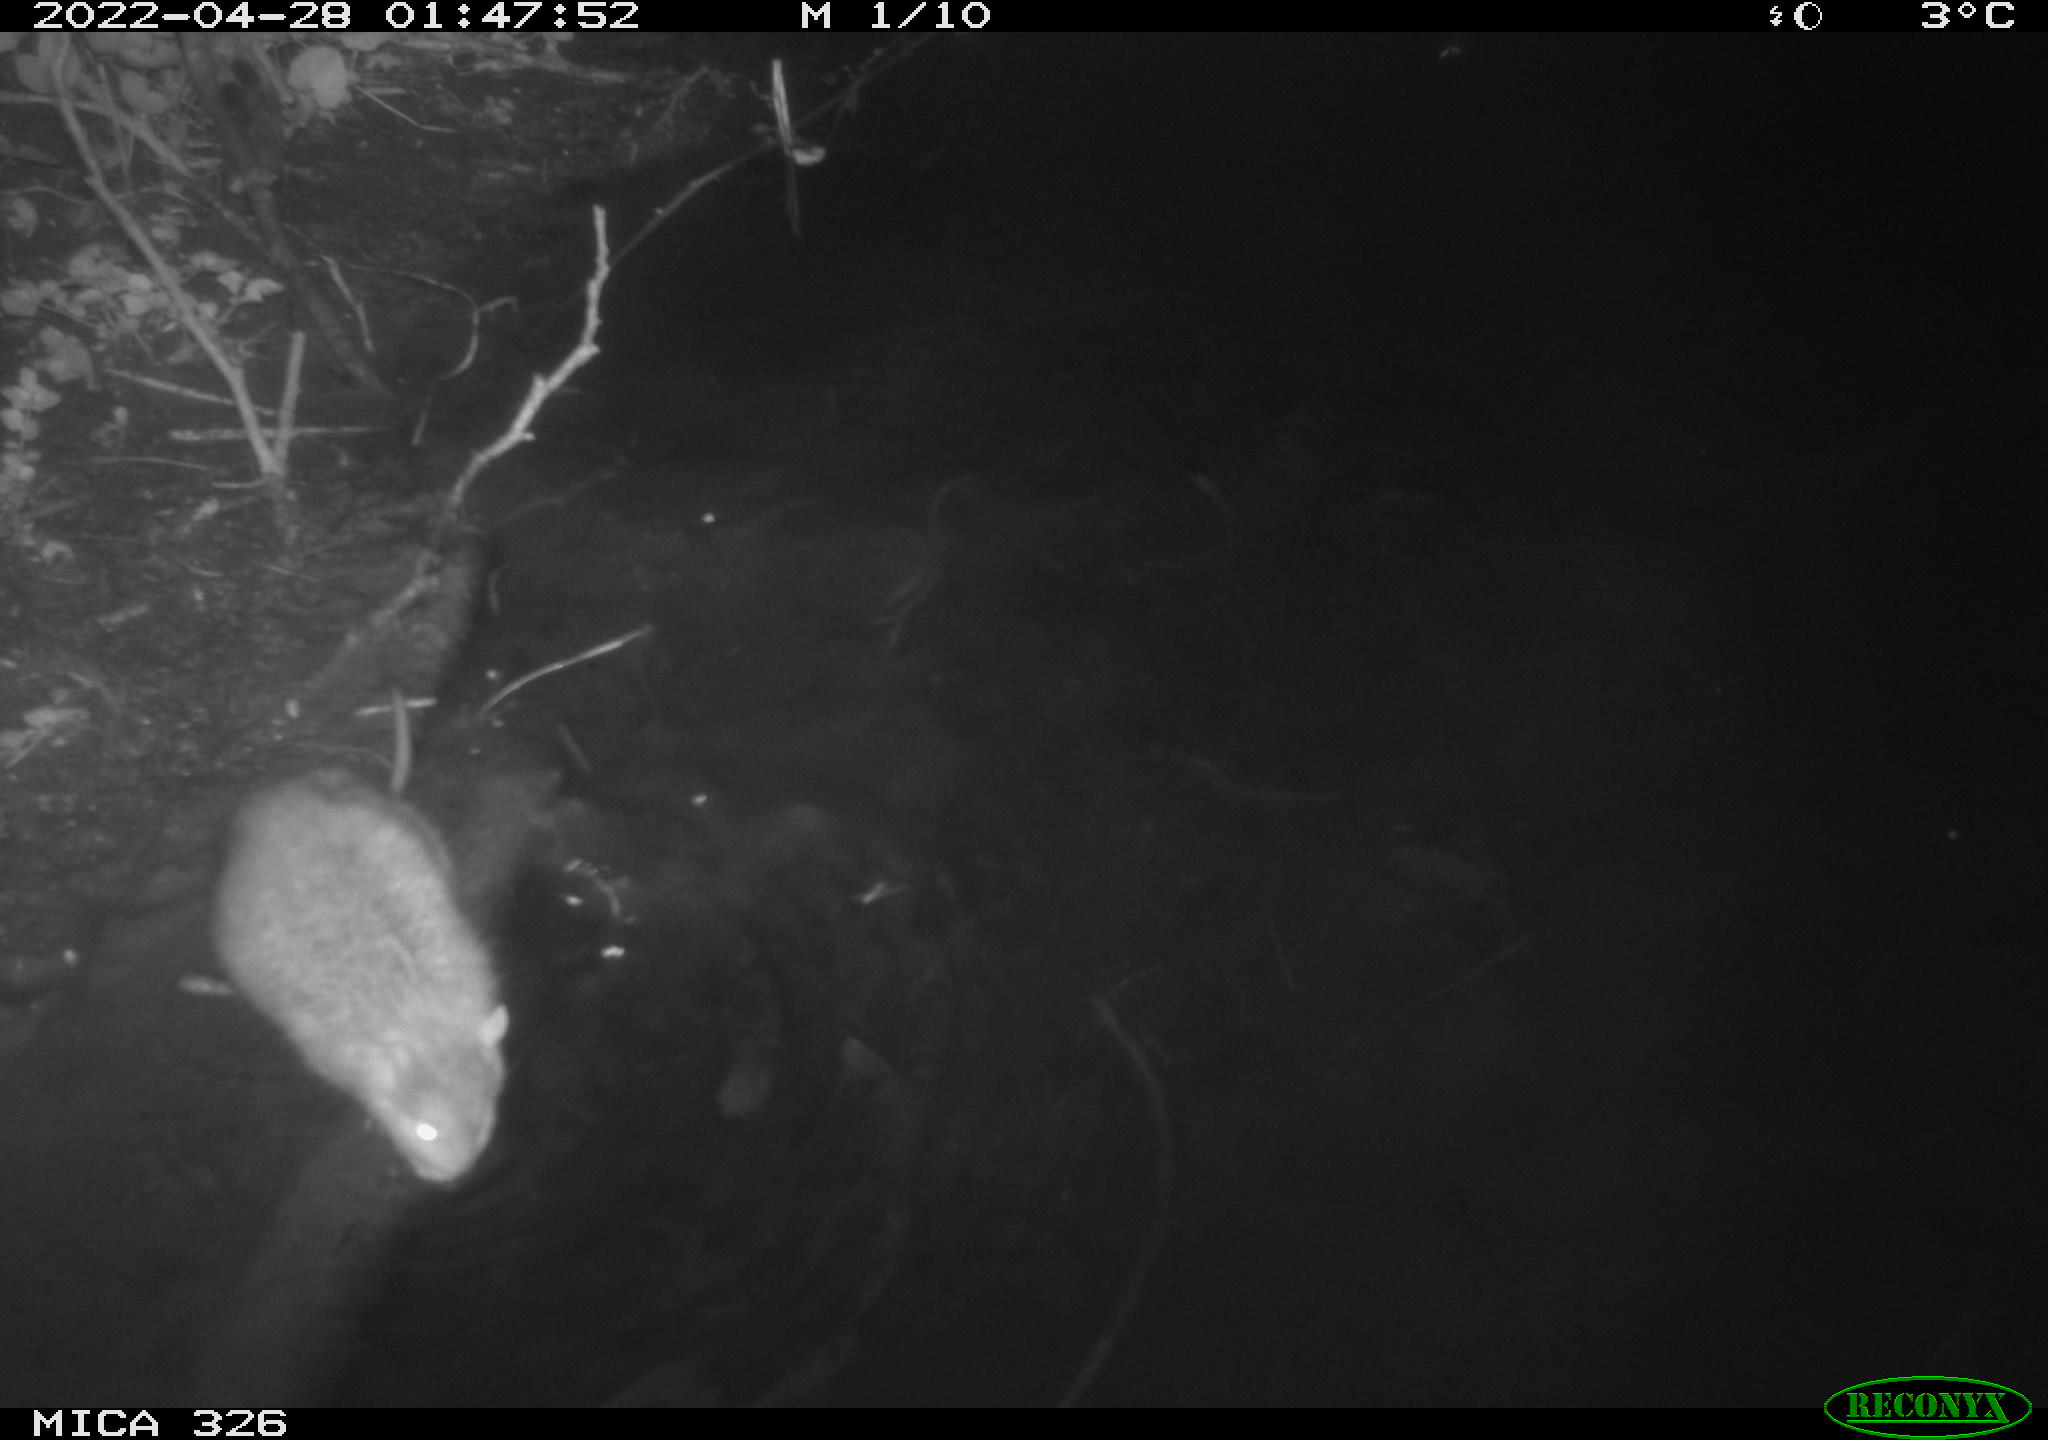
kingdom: Animalia
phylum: Chordata
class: Mammalia
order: Rodentia
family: Muridae
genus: Rattus
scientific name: Rattus norvegicus
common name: Brown rat
